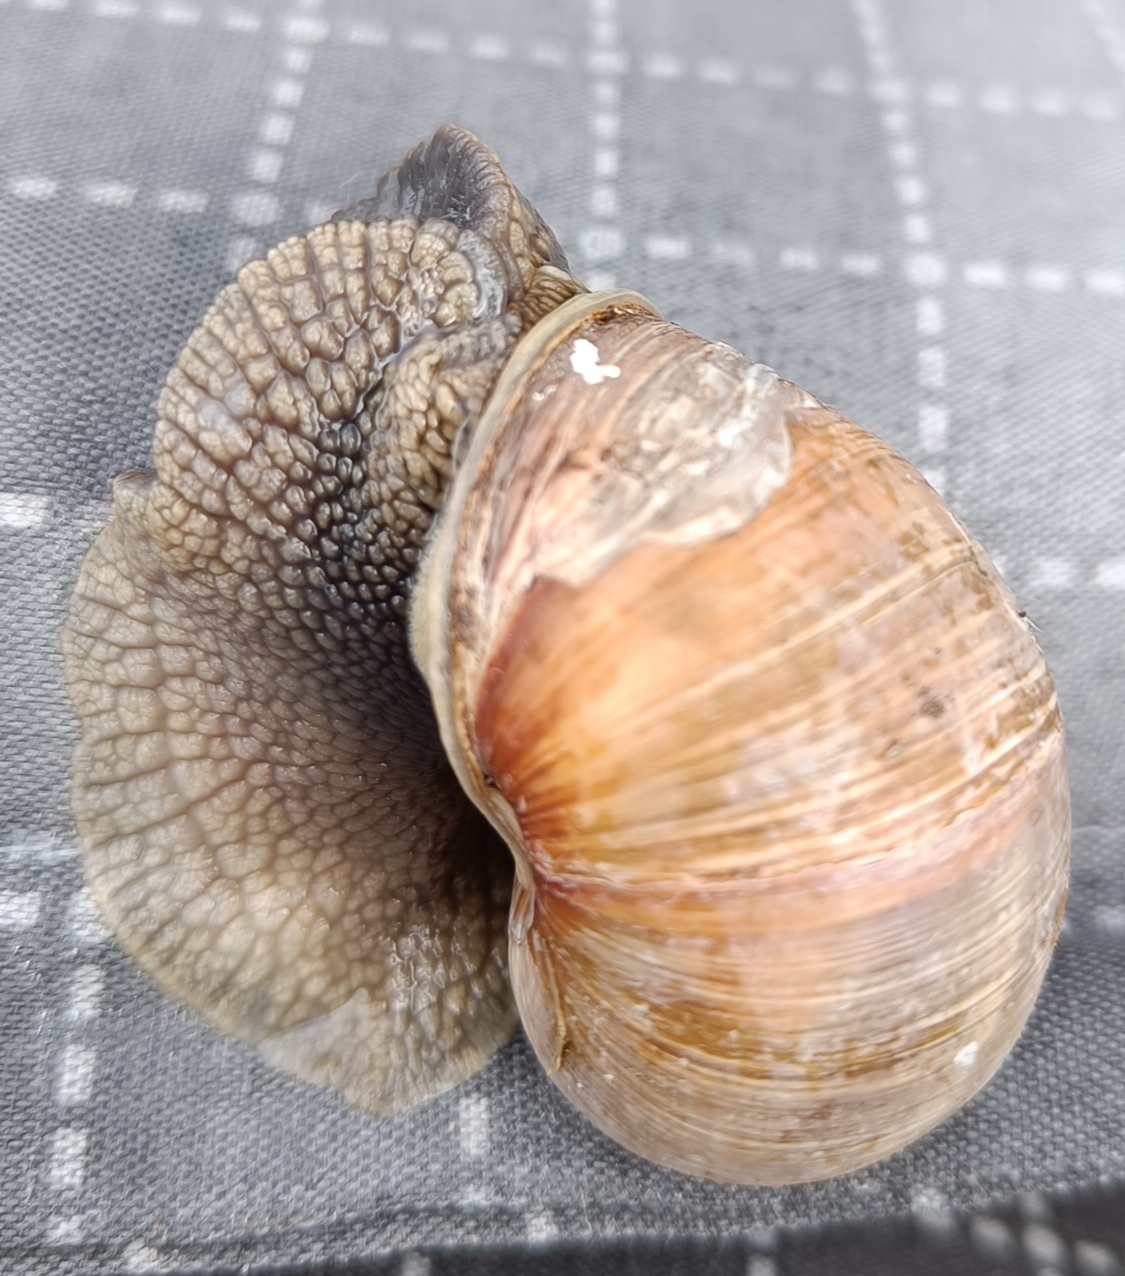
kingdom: Animalia
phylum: Mollusca
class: Gastropoda
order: Stylommatophora
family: Helicidae
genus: Helix
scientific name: Helix pomatia
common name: Vinbjergsnegl
